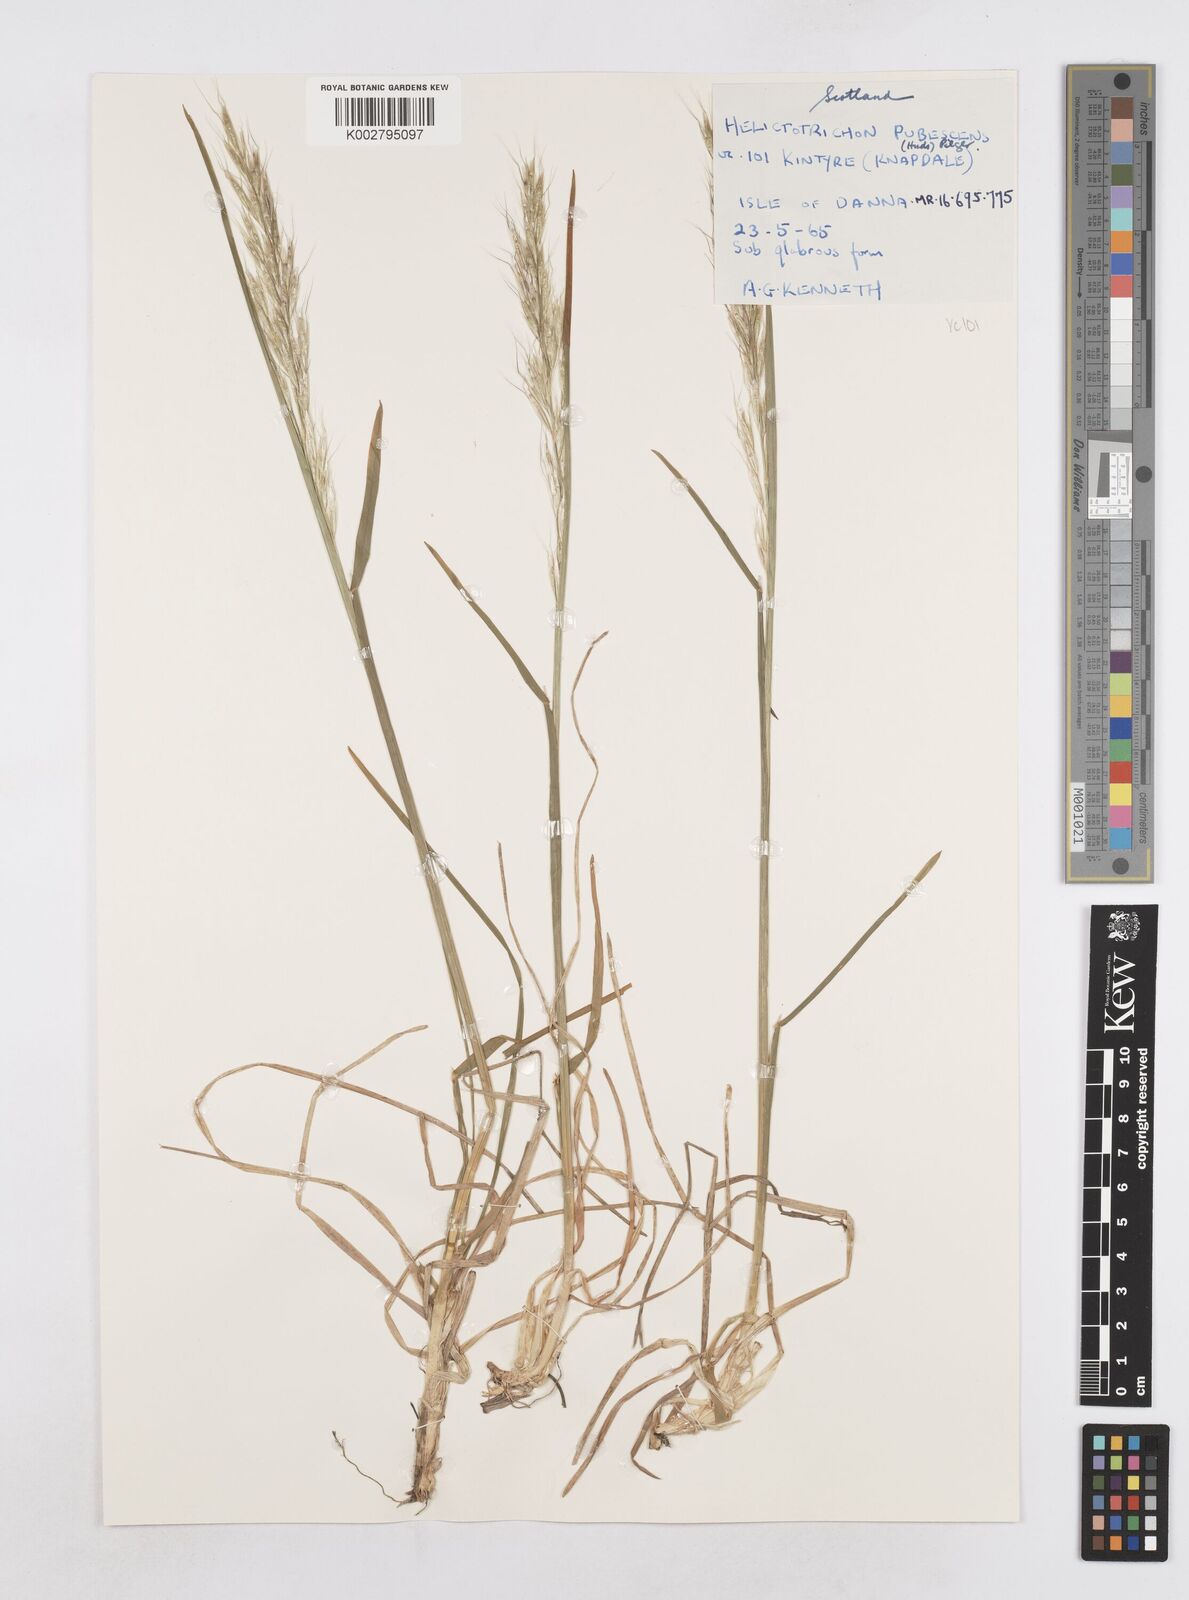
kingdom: Plantae
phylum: Tracheophyta
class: Liliopsida
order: Poales
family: Poaceae
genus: Helictotrichon
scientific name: Helictotrichon
